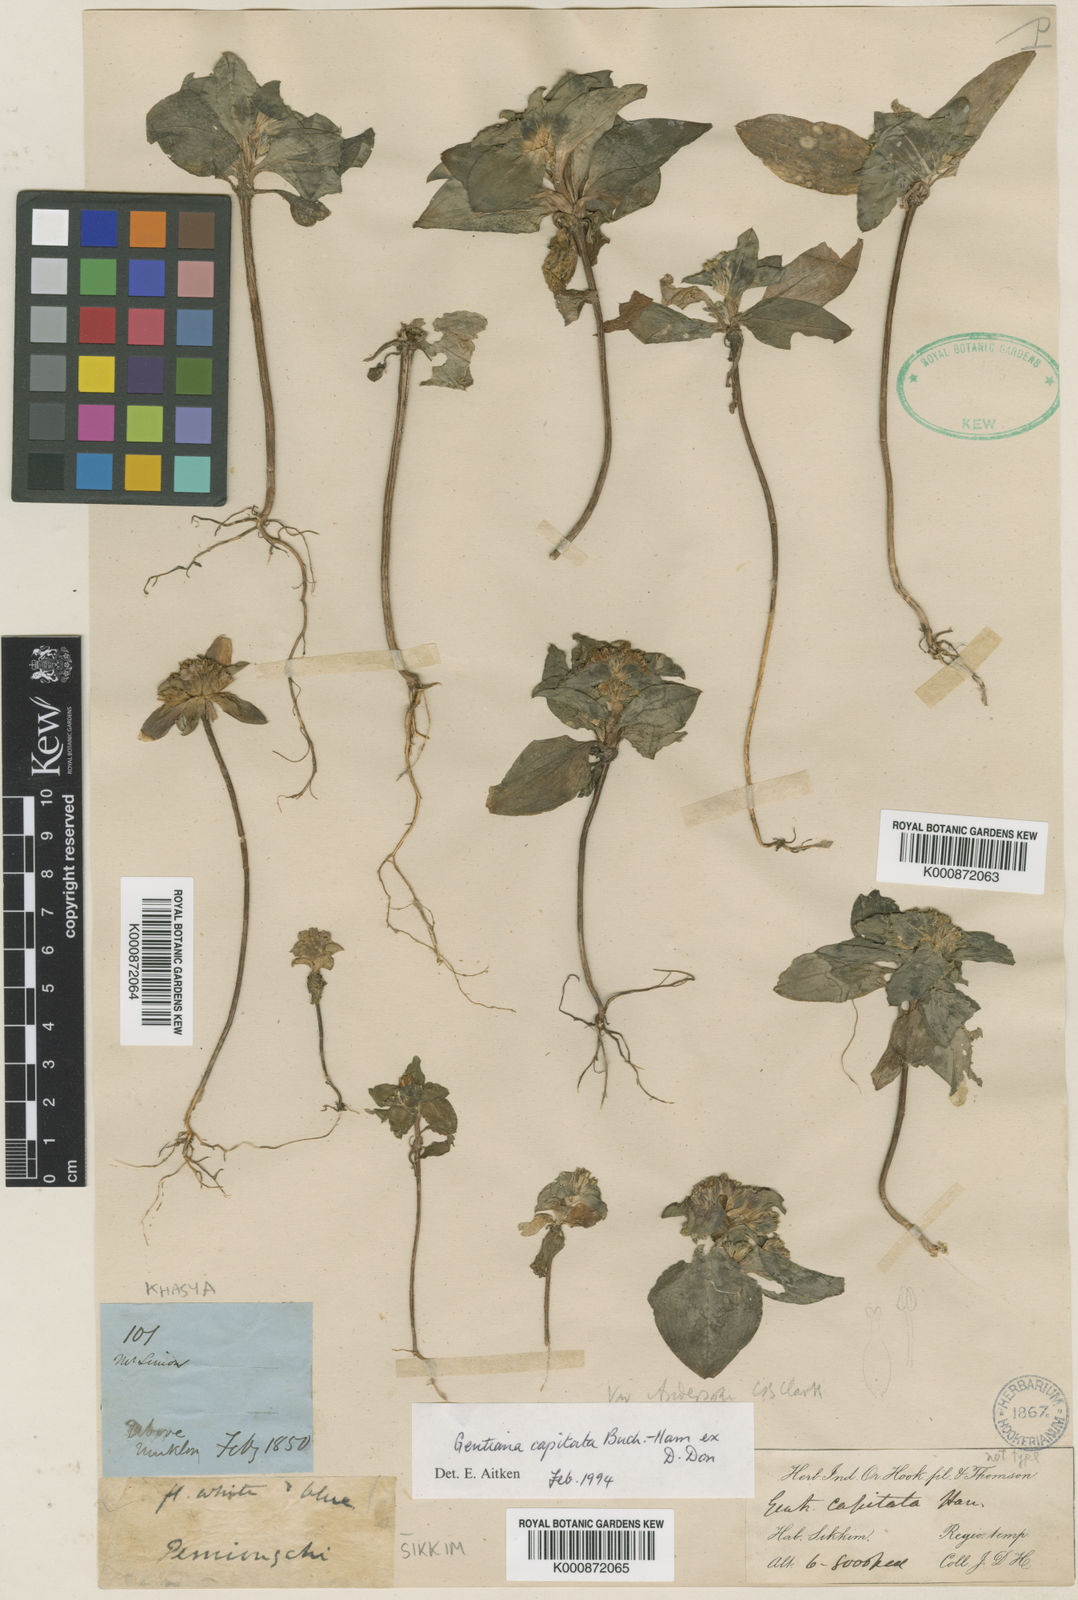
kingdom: Plantae
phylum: Tracheophyta
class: Magnoliopsida
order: Gentianales
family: Gentianaceae
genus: Gentiana
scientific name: Gentiana capitata
